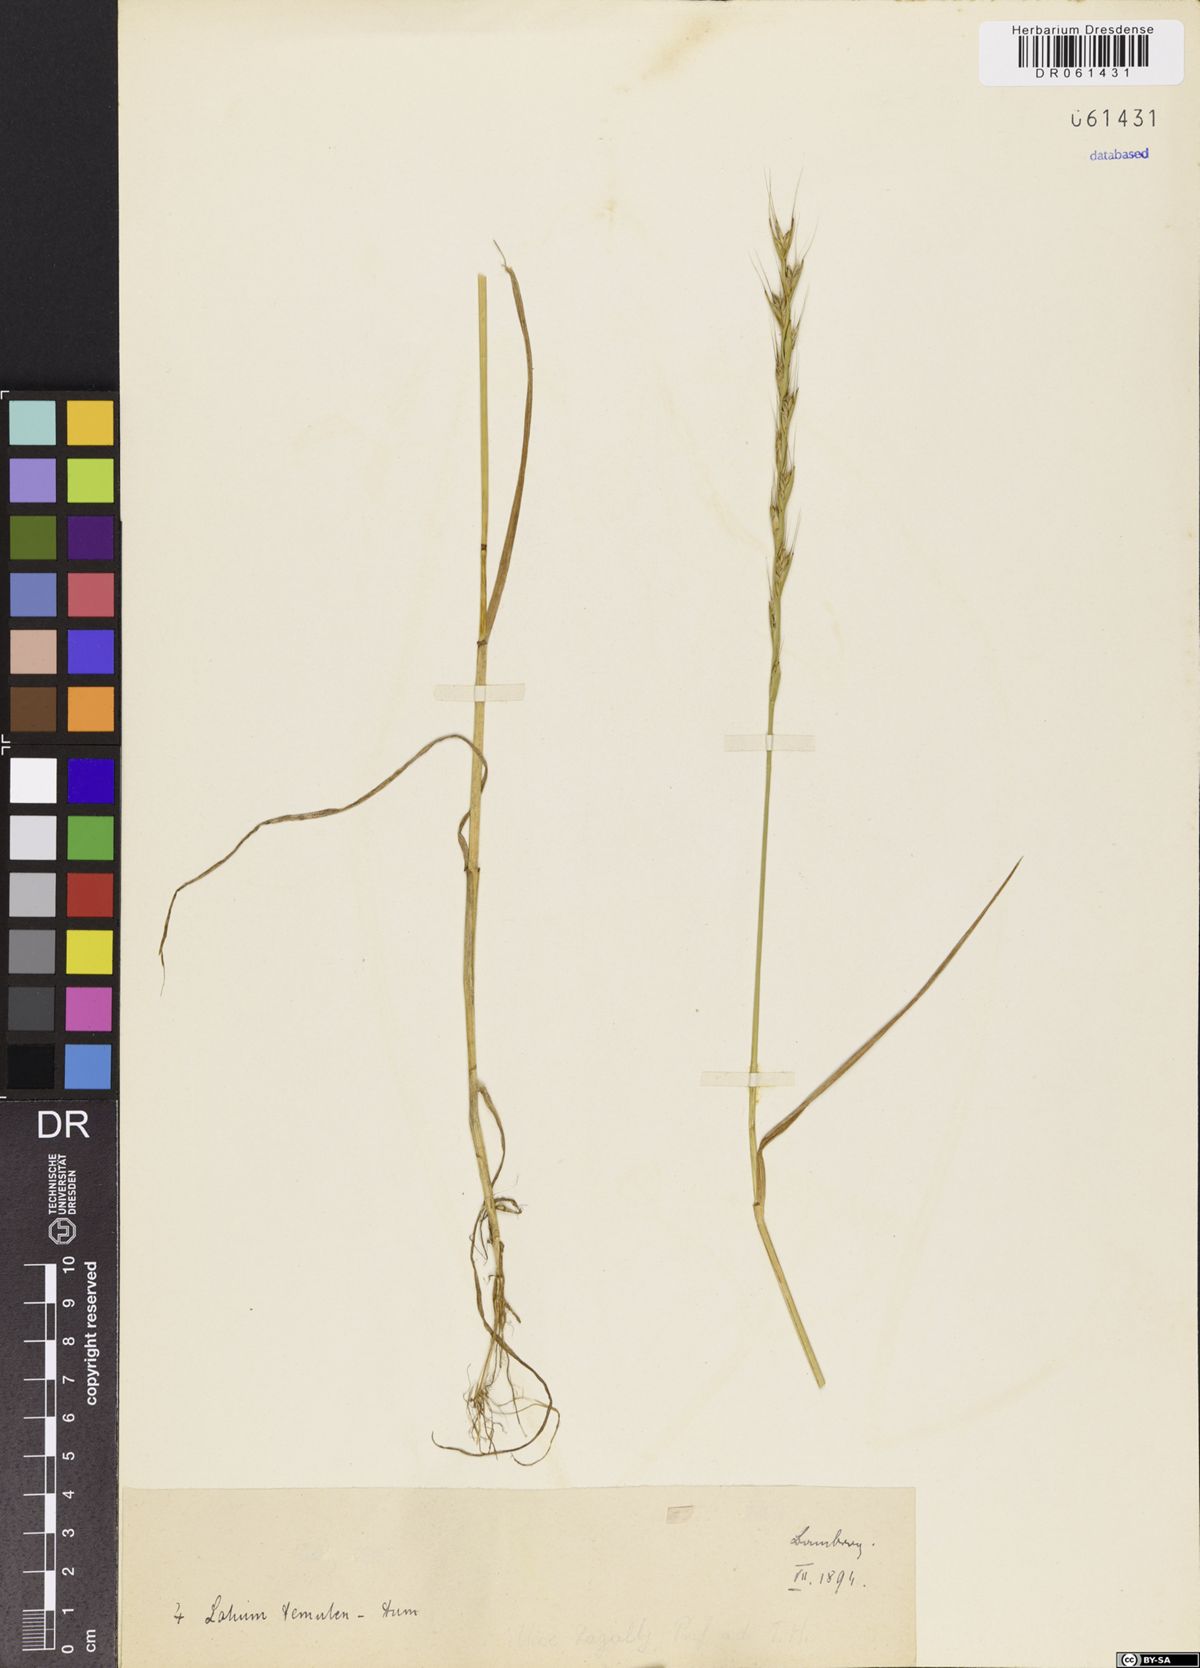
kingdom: Plantae
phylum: Tracheophyta
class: Liliopsida
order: Poales
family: Poaceae
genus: Lolium
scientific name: Lolium temulentum
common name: Darnel
